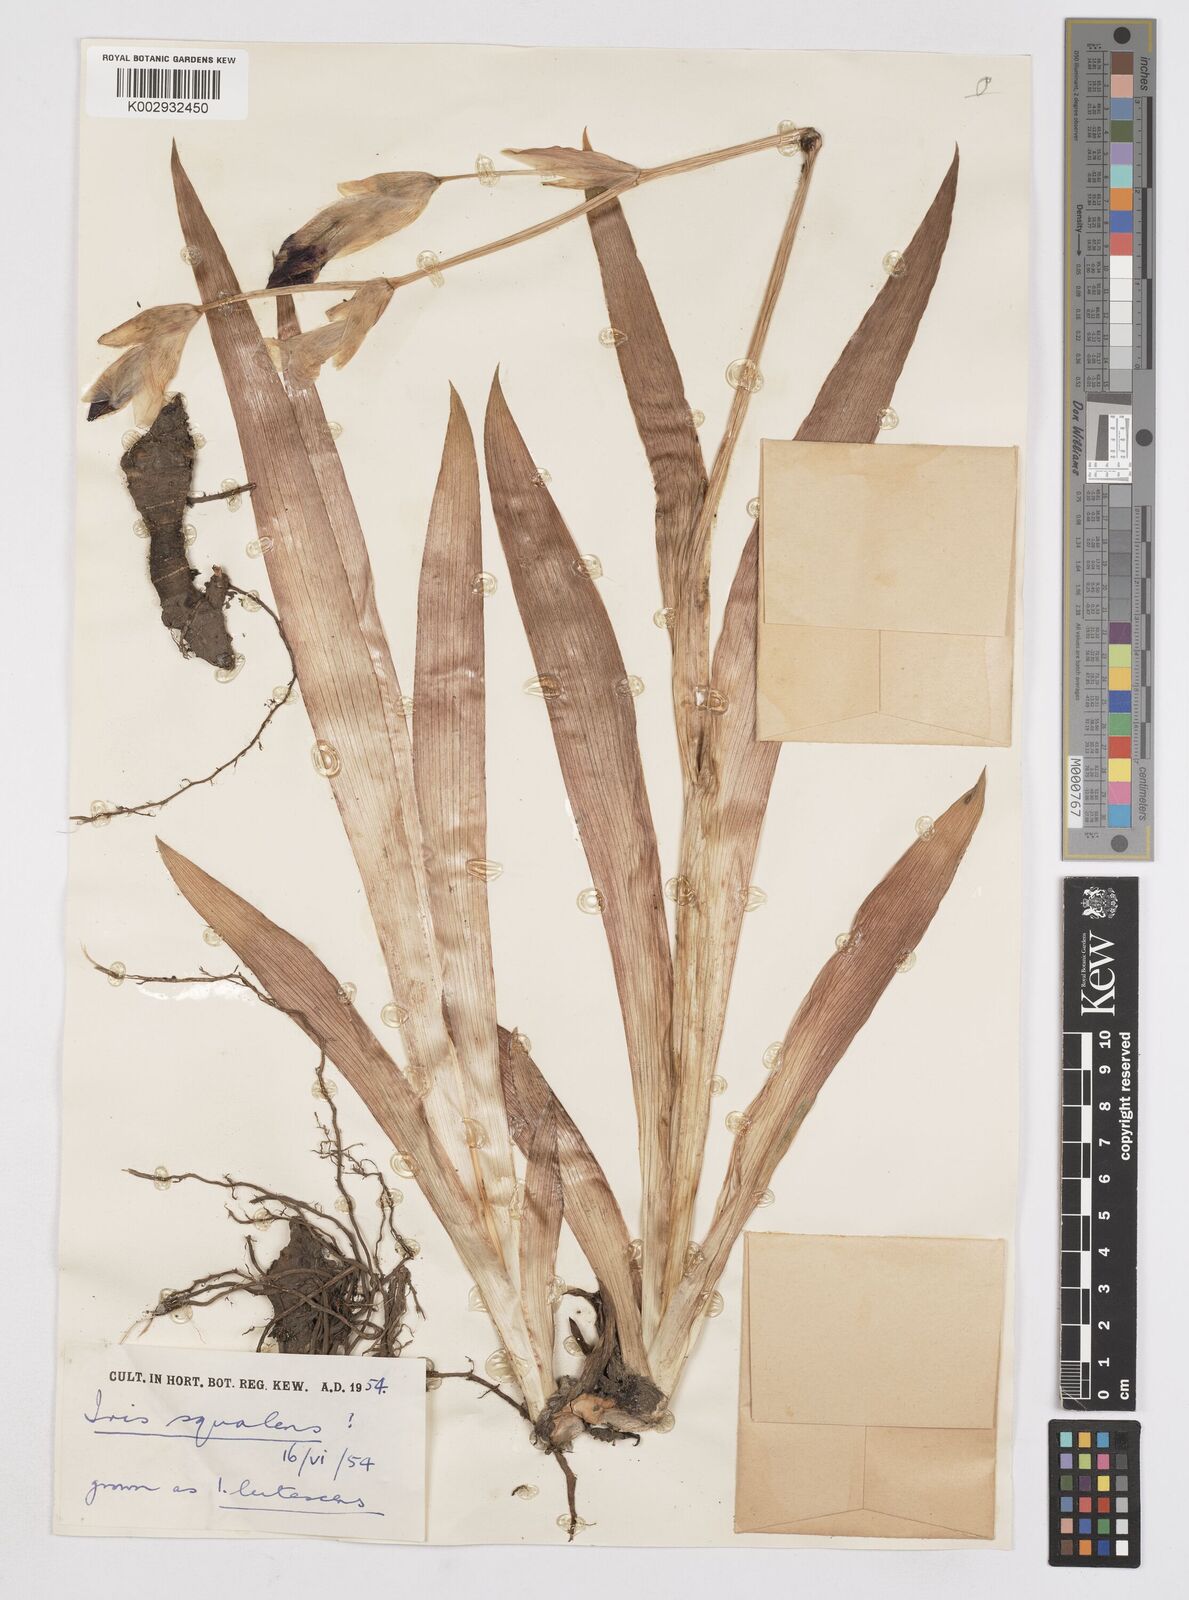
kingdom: Plantae
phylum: Tracheophyta
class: Liliopsida
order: Asparagales
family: Iridaceae
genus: Iris
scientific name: Iris
